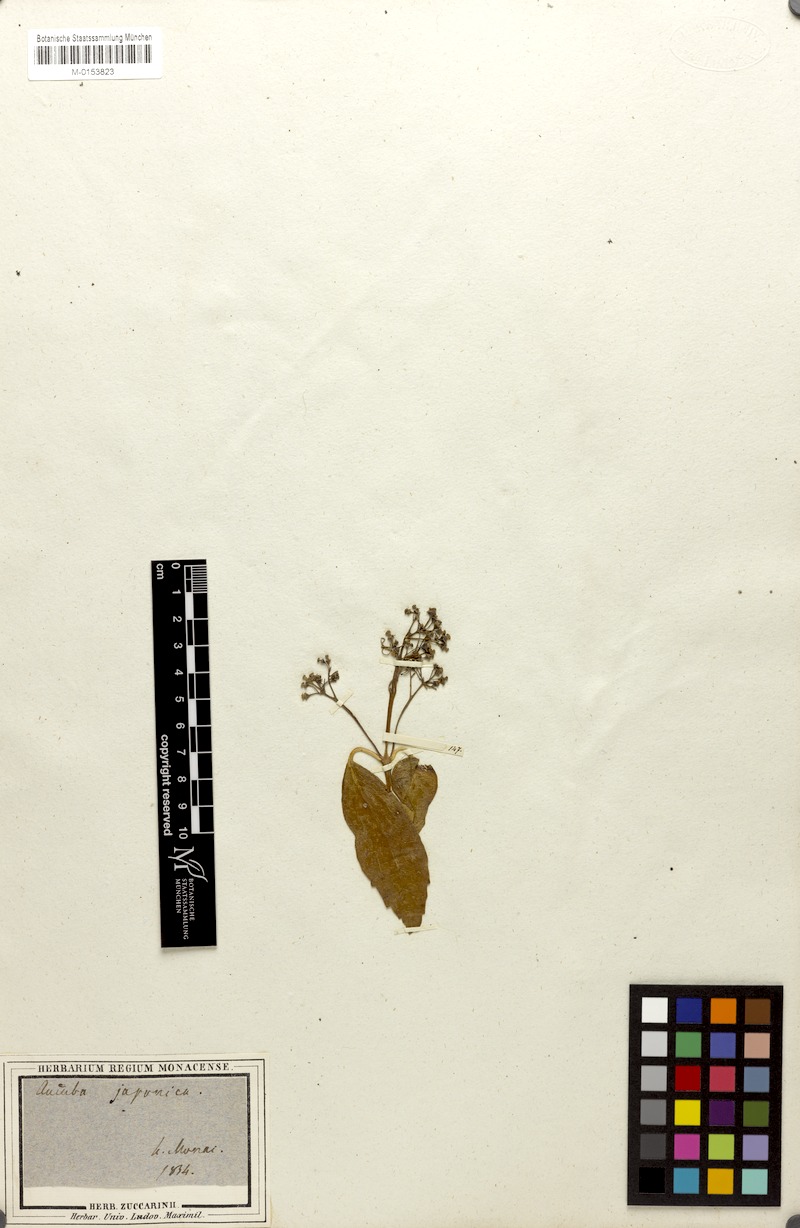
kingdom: Plantae
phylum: Tracheophyta
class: Magnoliopsida
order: Garryales
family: Garryaceae
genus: Aucuba
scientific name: Aucuba japonica
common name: Spotted-laurel
